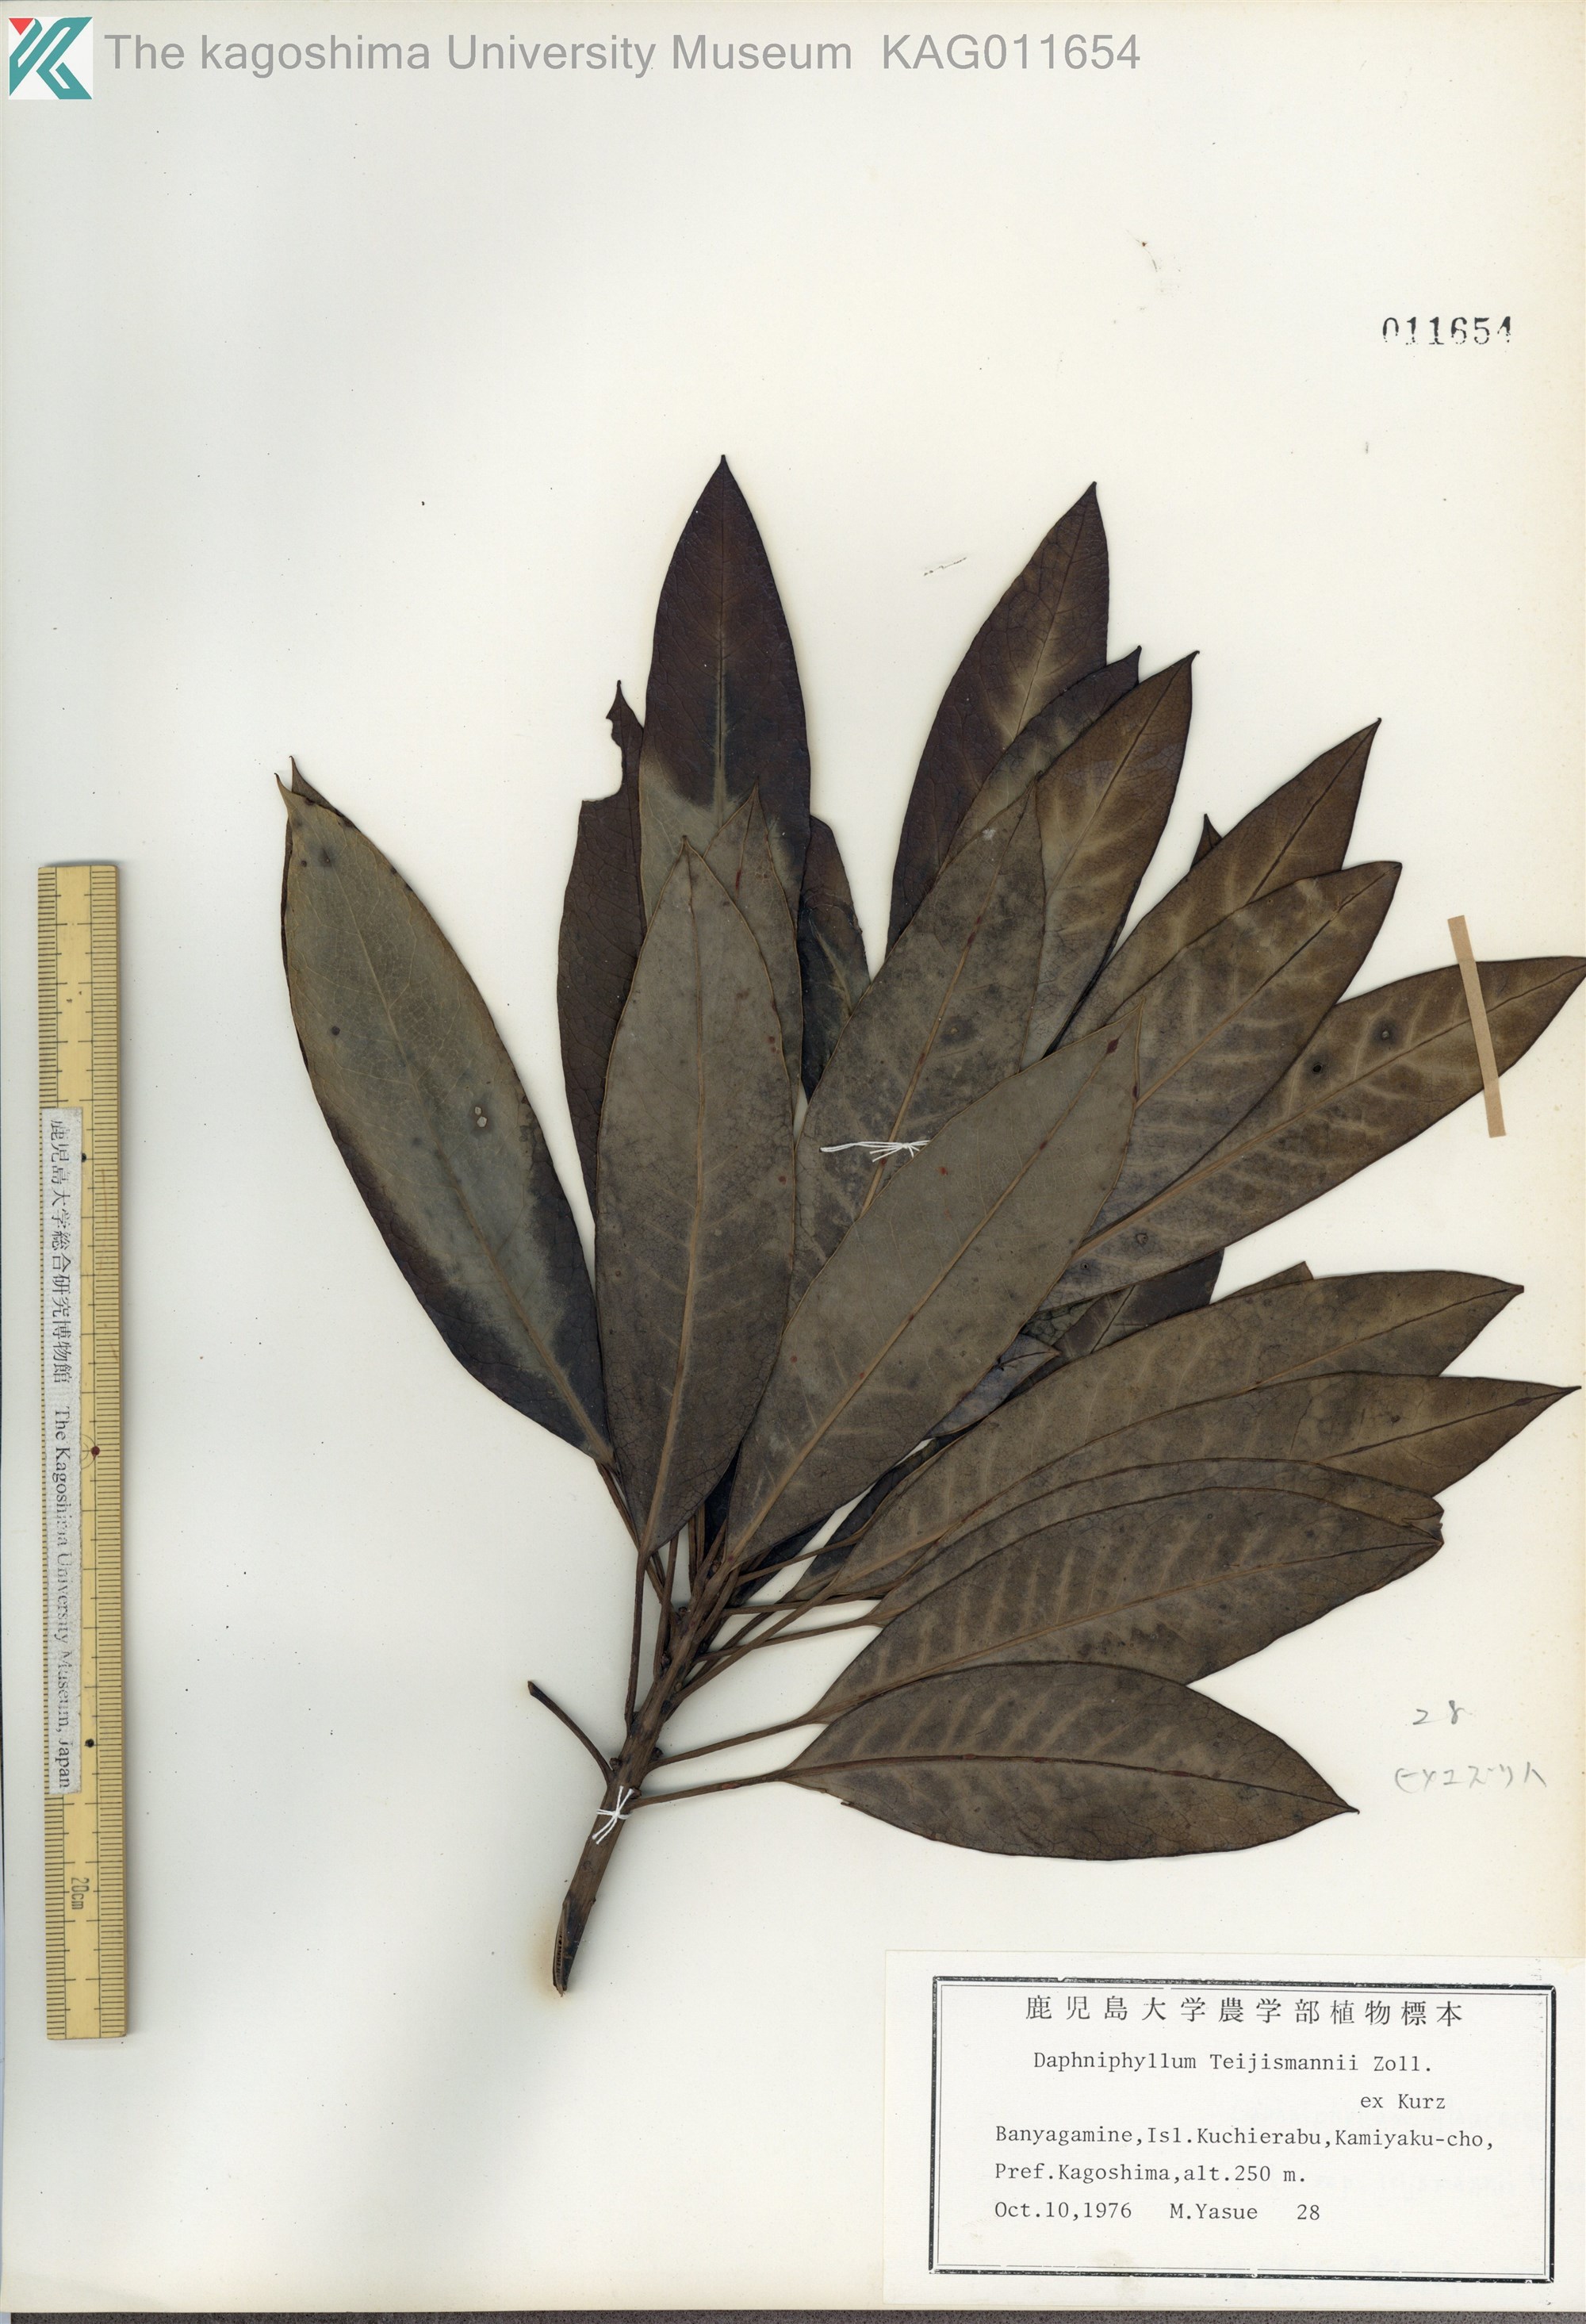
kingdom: Plantae
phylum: Tracheophyta
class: Magnoliopsida
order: Saxifragales
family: Daphniphyllaceae
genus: Daphniphyllum
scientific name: Daphniphyllum teijsmannii
